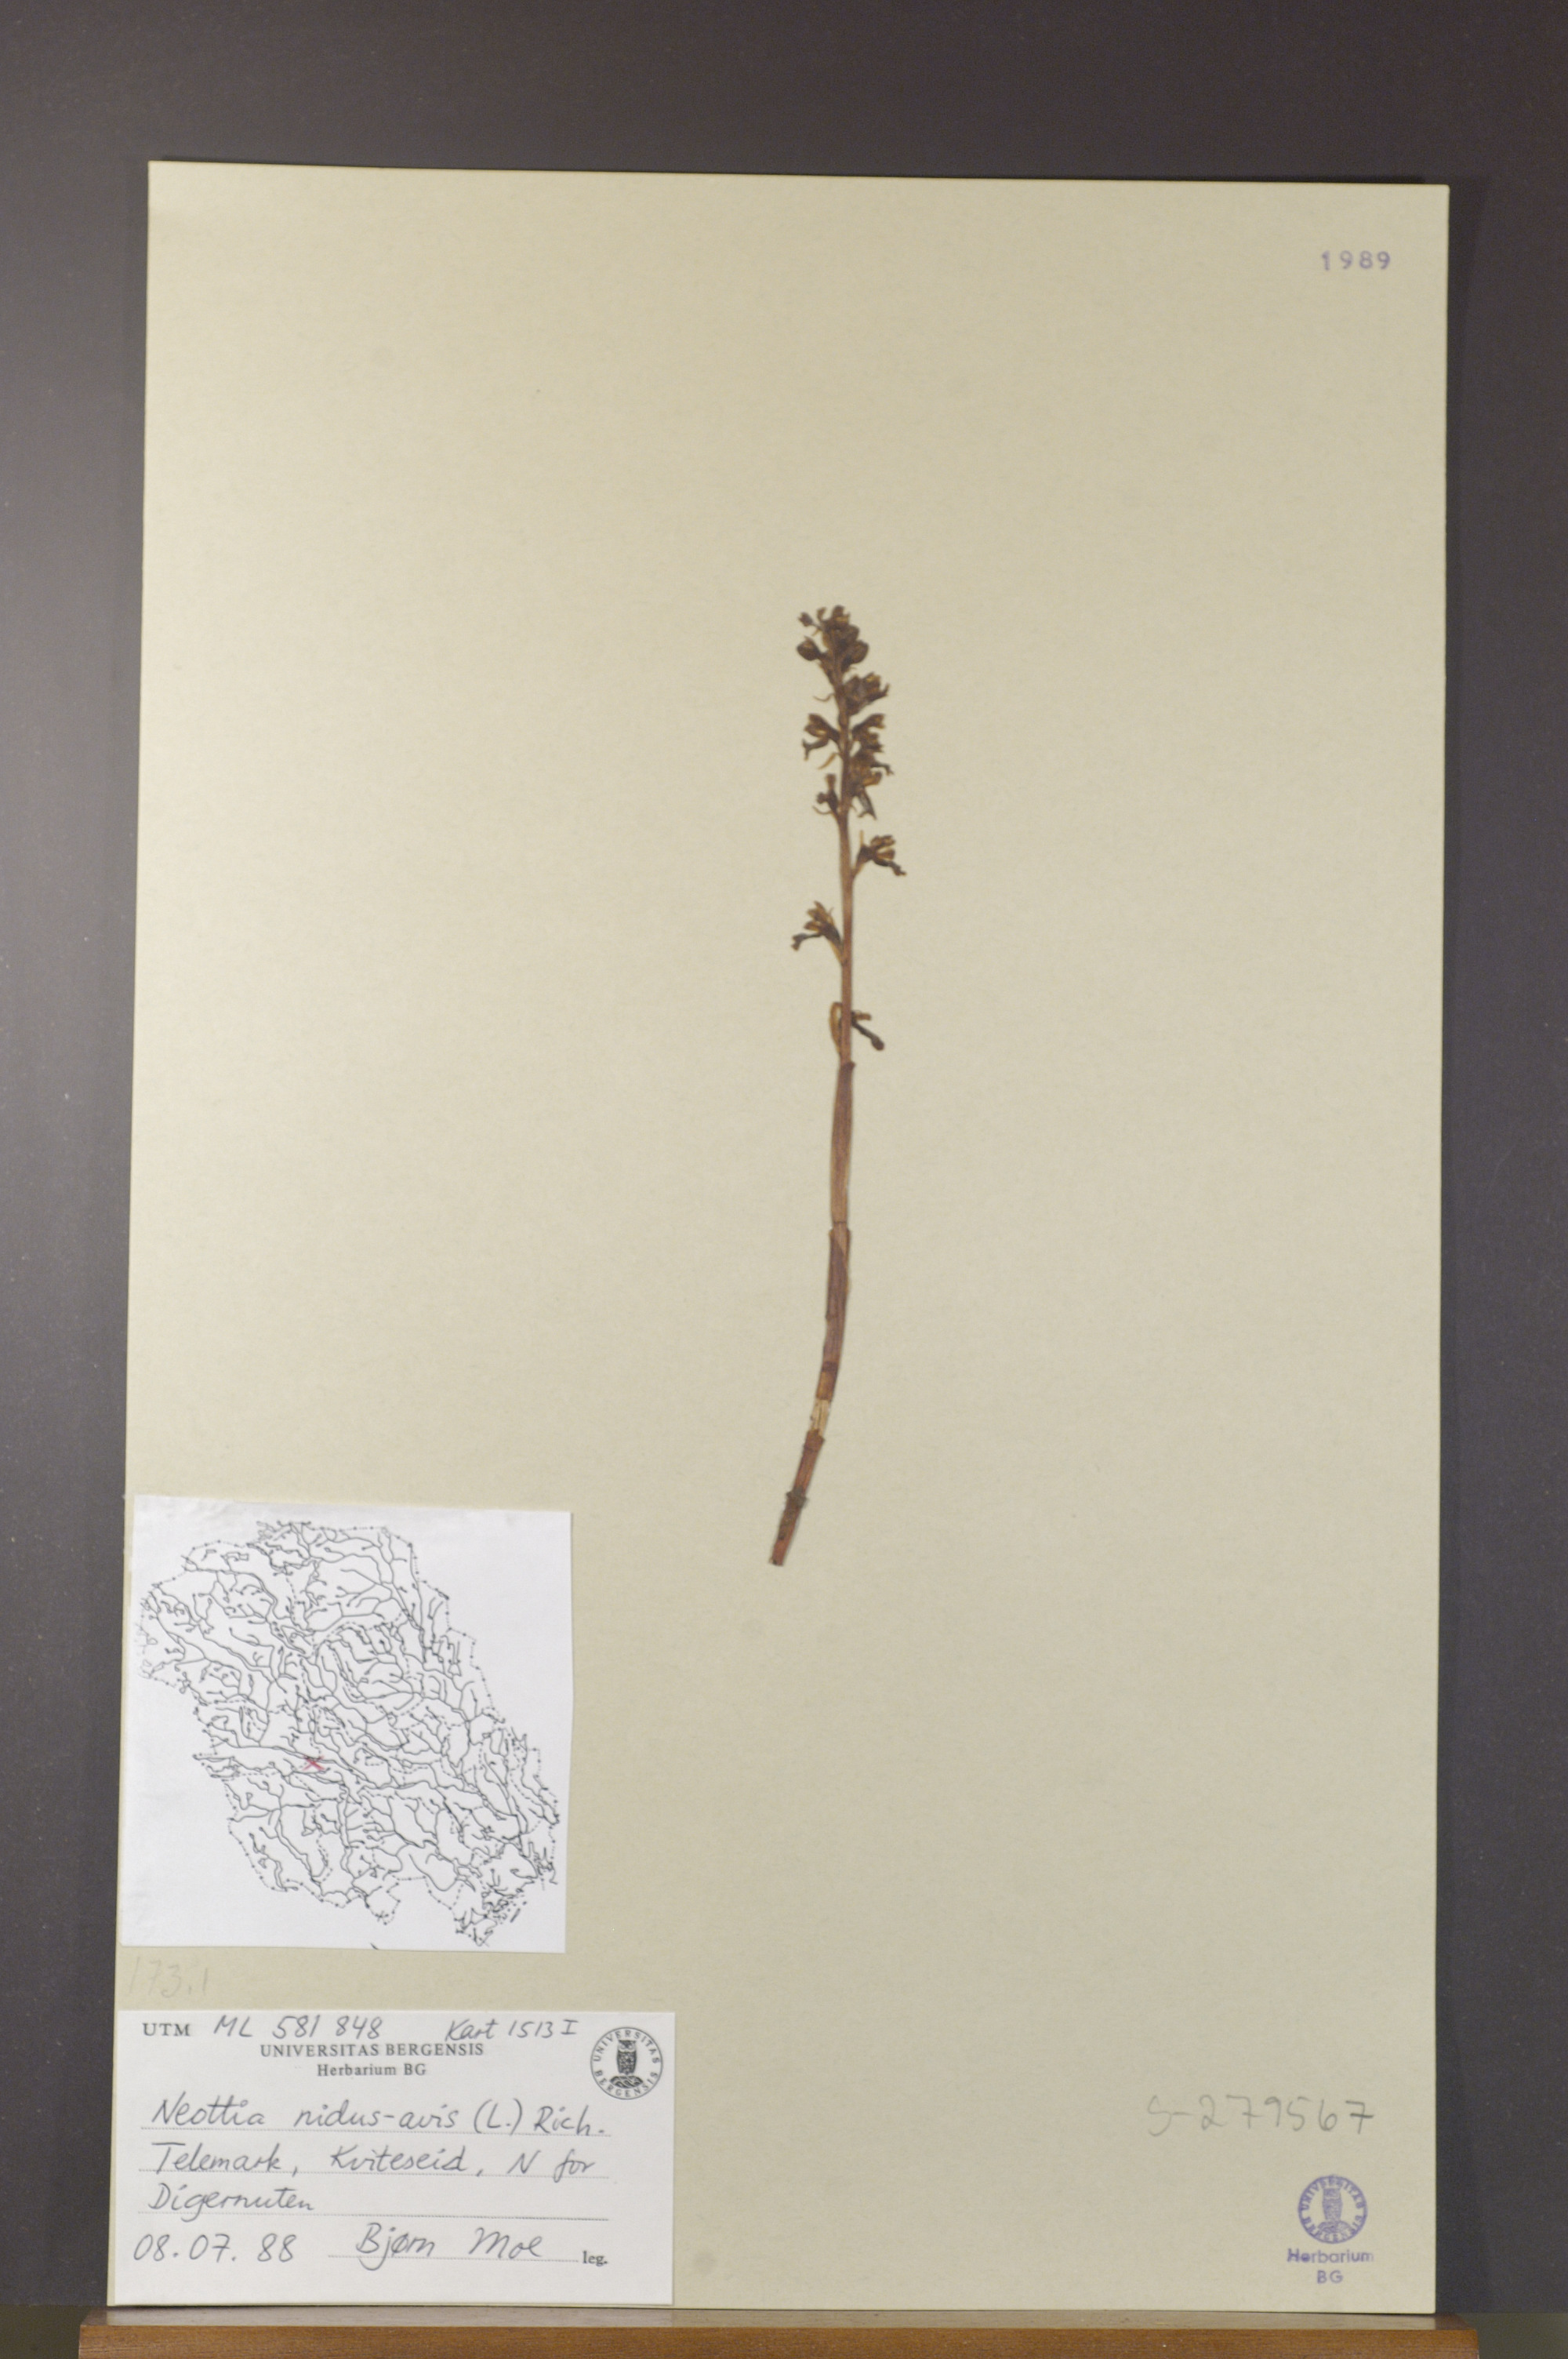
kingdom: Plantae
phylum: Tracheophyta
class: Liliopsida
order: Asparagales
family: Orchidaceae
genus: Neottia
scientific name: Neottia nidus-avis
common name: Bird's-nest orchid
